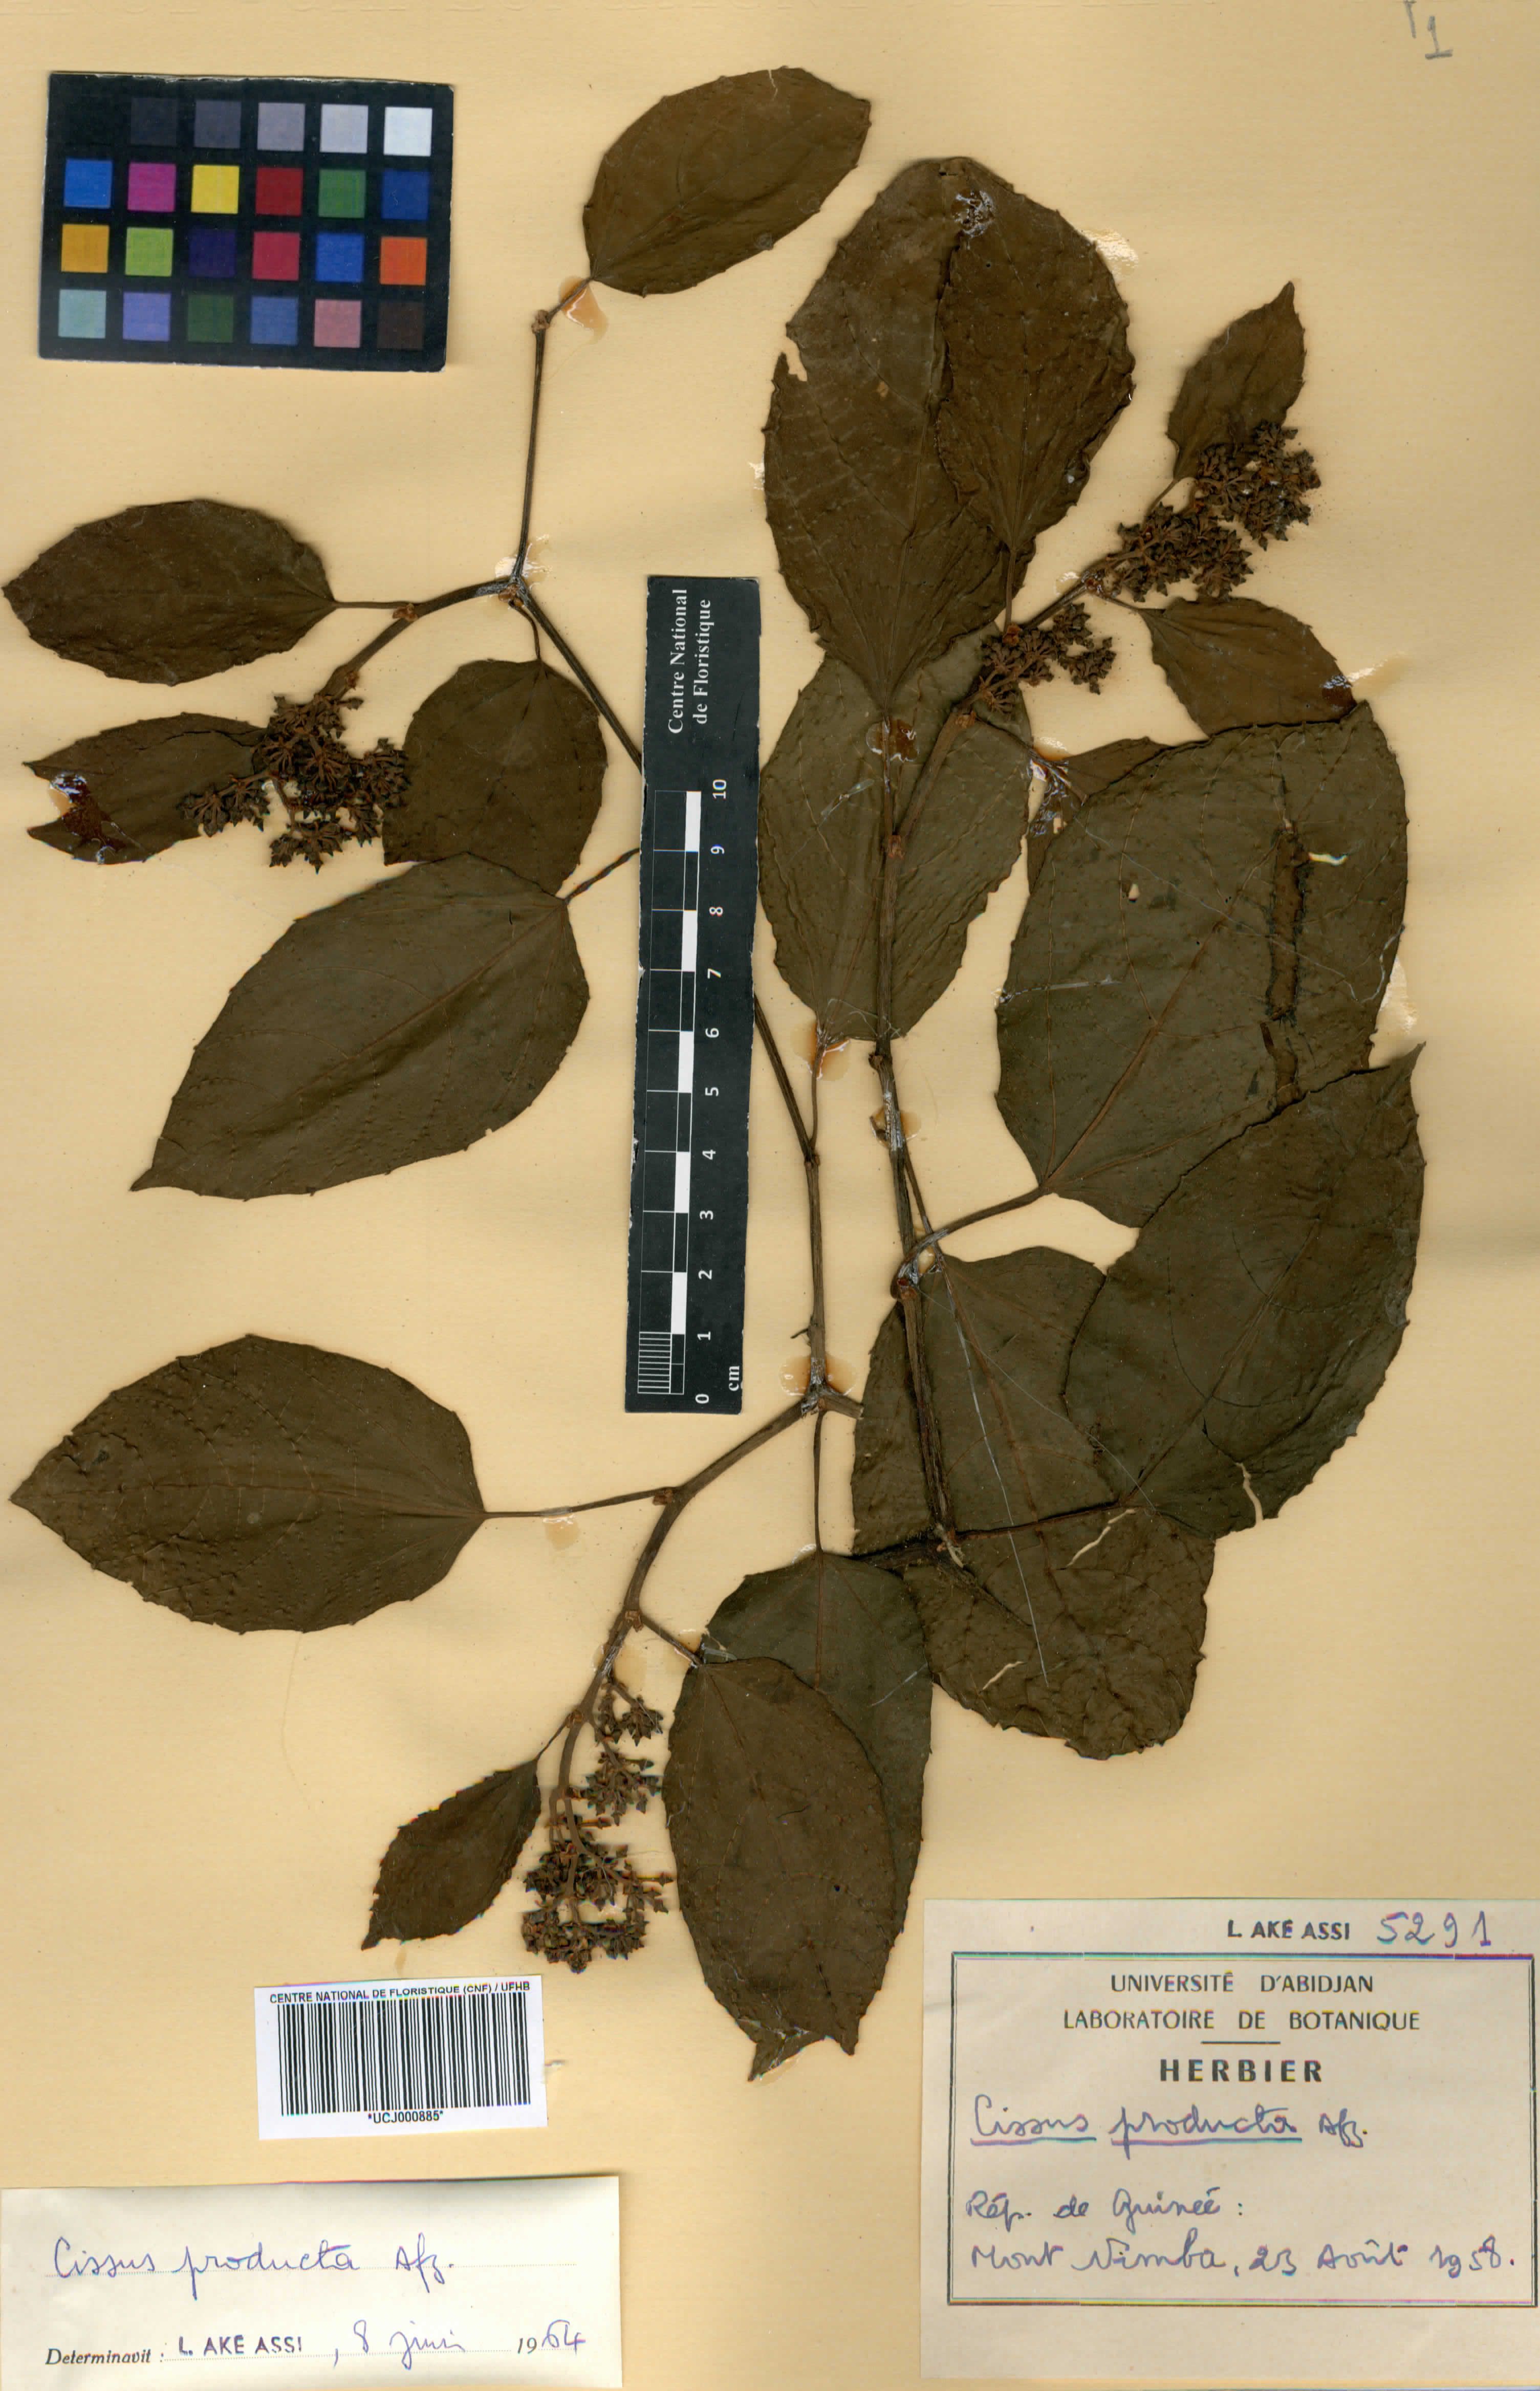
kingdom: Plantae
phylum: Tracheophyta
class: Magnoliopsida
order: Vitales
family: Vitaceae
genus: Cissus
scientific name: Cissus producta
